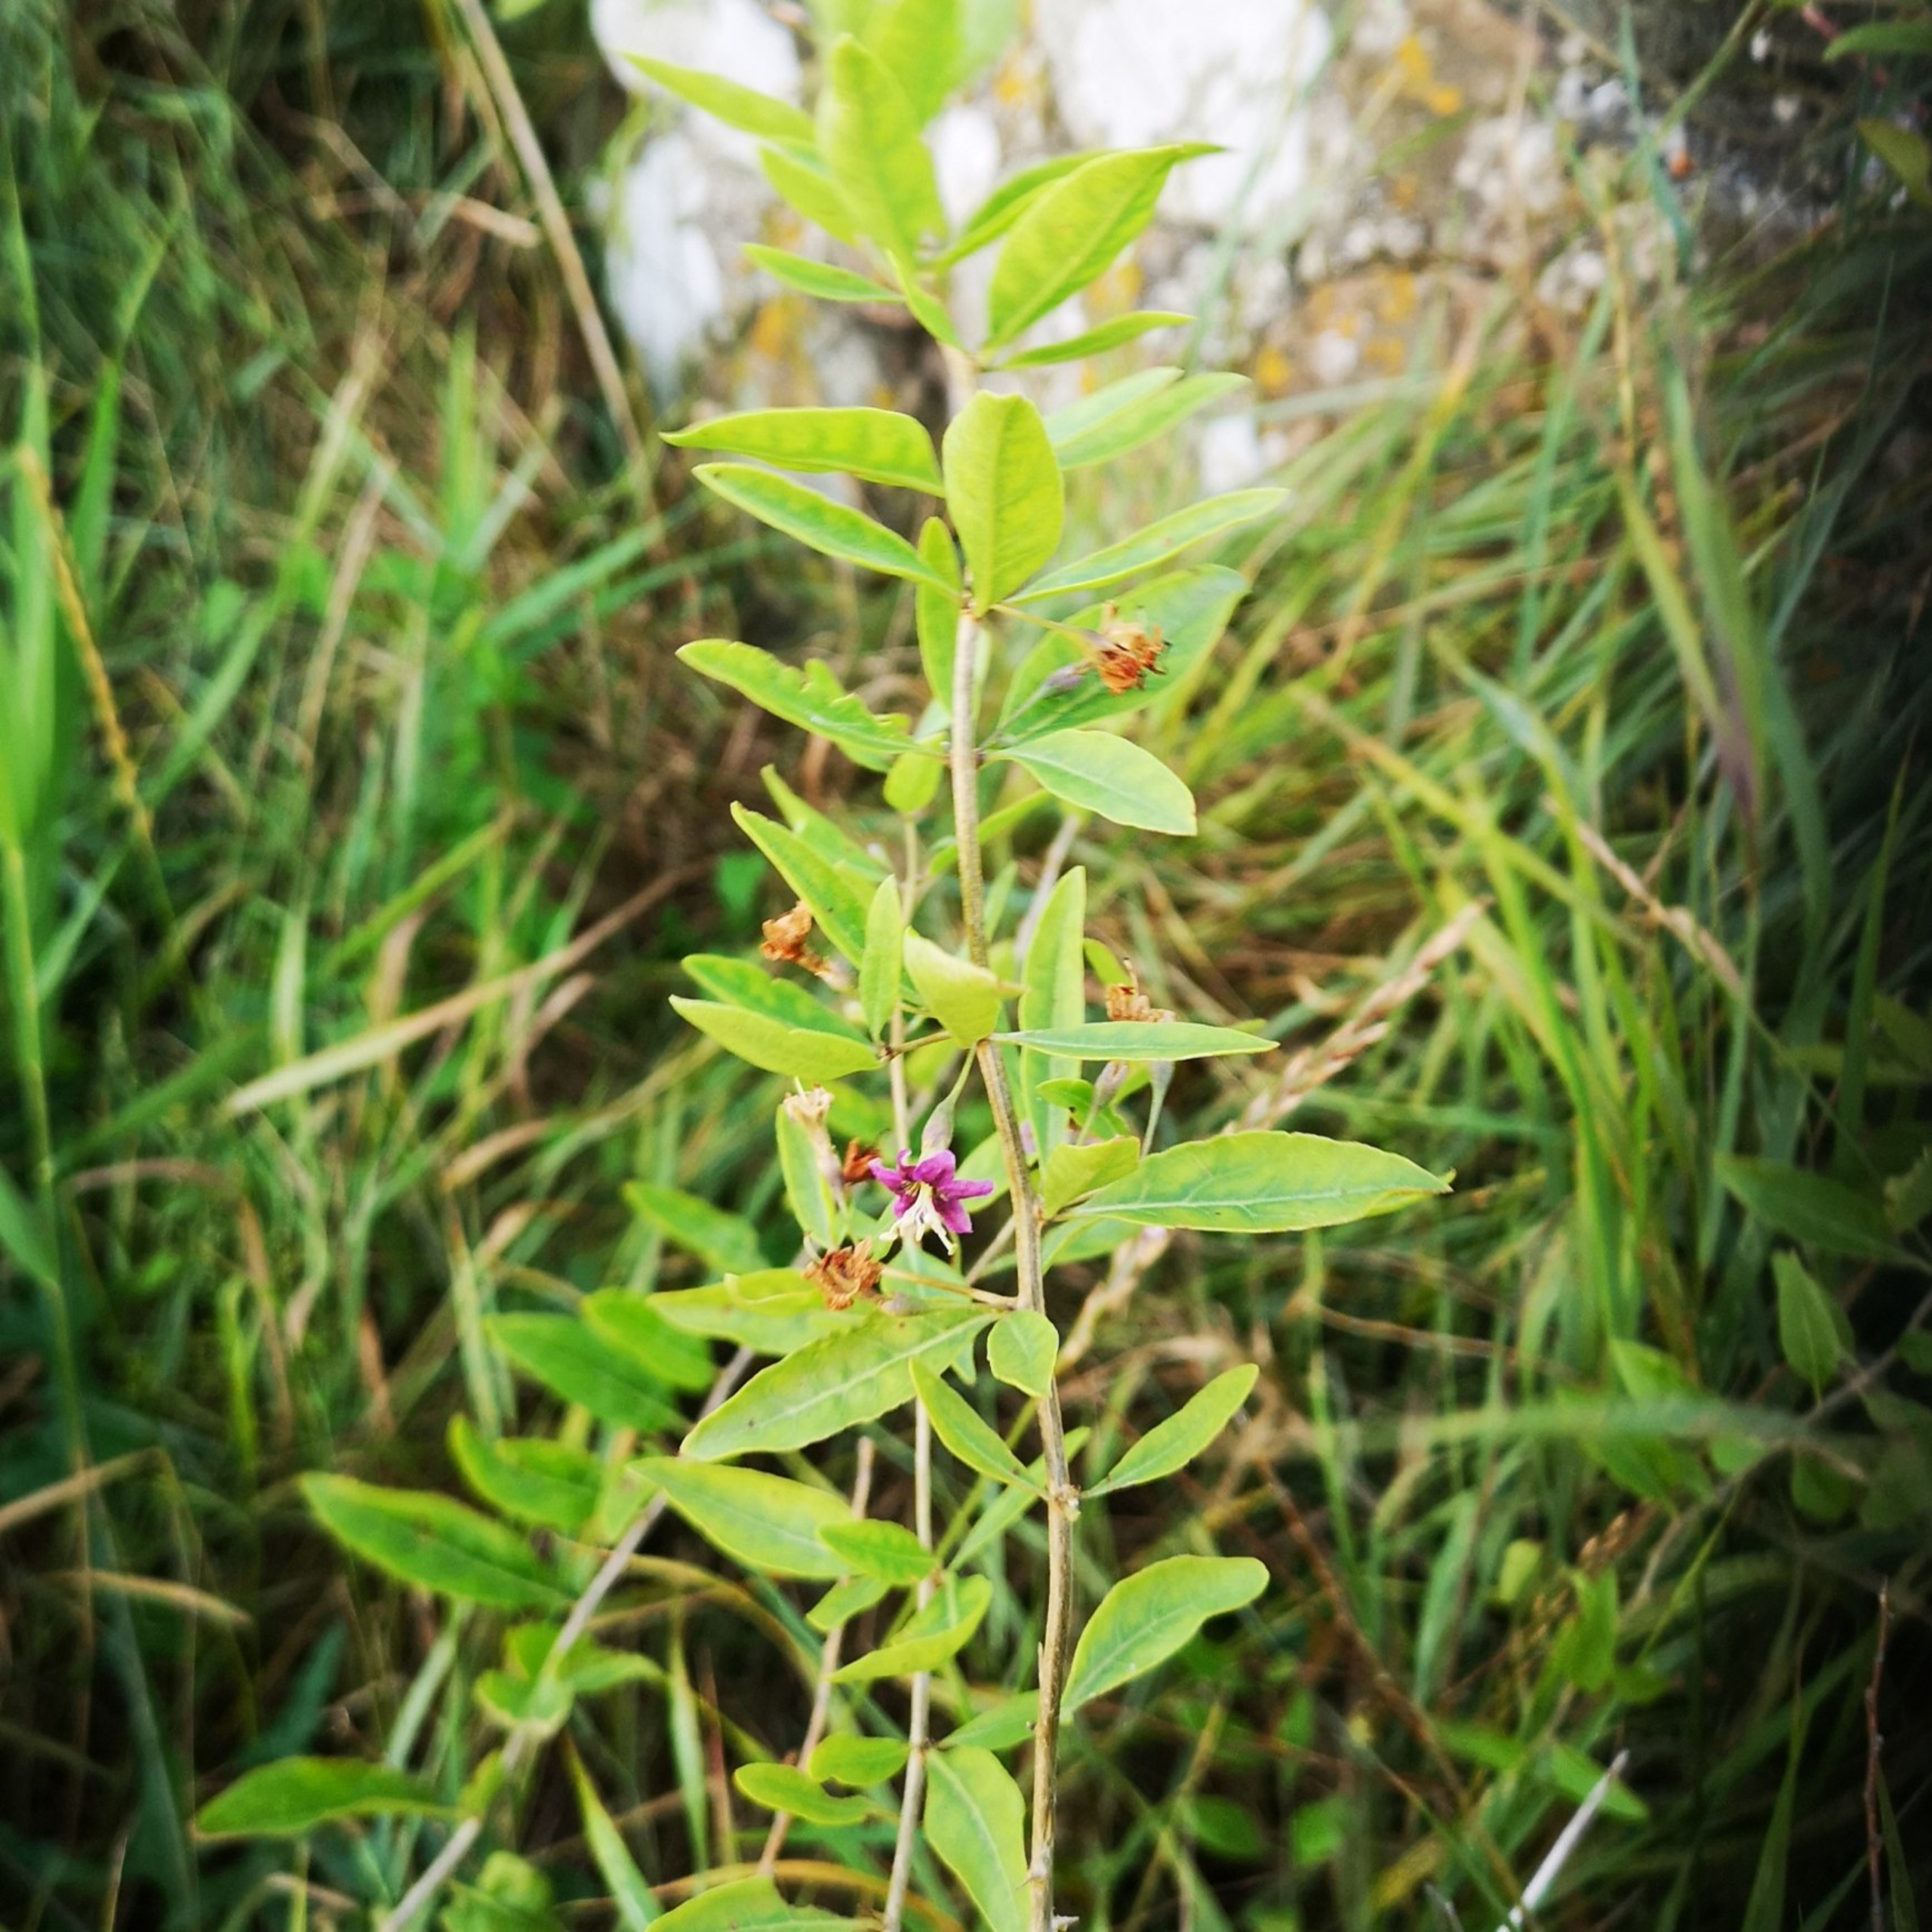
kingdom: Plantae
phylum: Tracheophyta
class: Magnoliopsida
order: Solanales
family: Solanaceae
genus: Lycium
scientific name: Lycium barbarum
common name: Bukketorn
